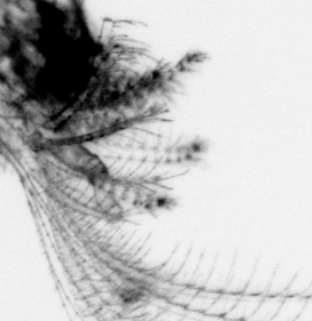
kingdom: Animalia
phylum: Arthropoda
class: Maxillopoda
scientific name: Maxillopoda
